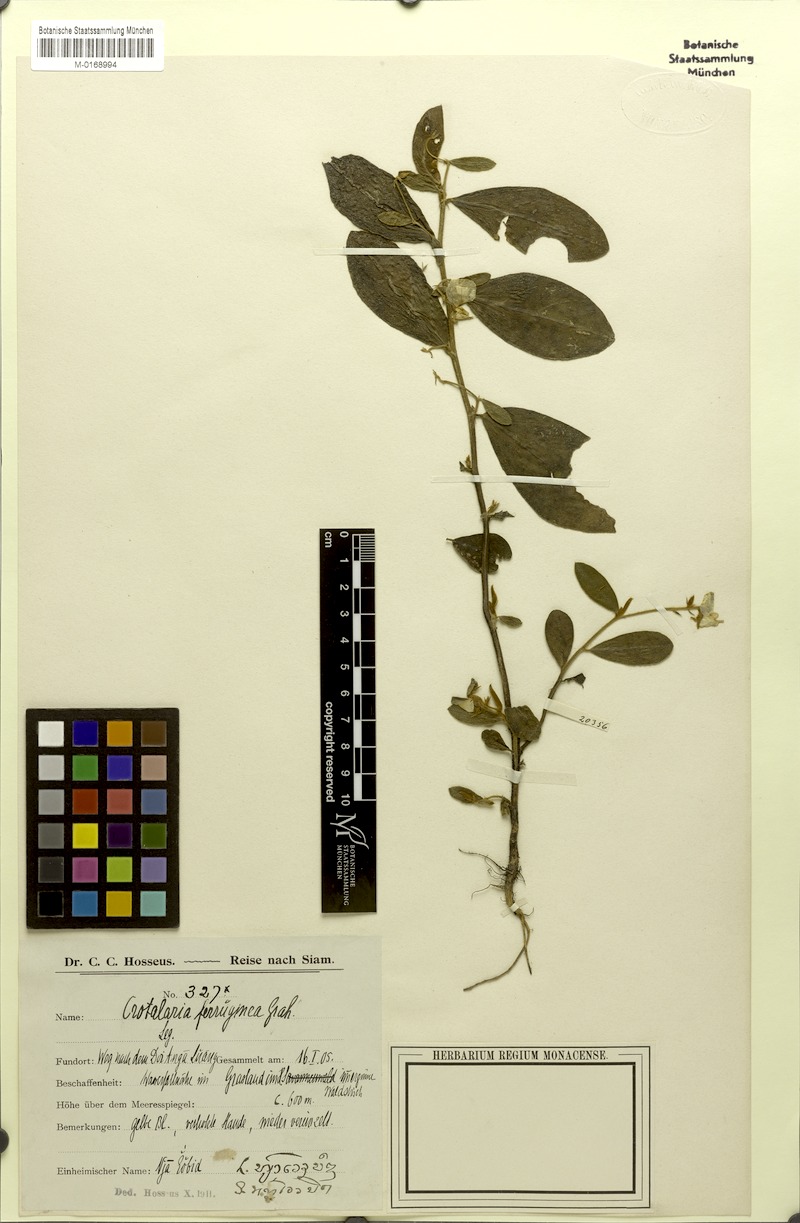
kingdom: Plantae
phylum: Tracheophyta
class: Magnoliopsida
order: Fabales
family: Fabaceae
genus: Crotalaria
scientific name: Crotalaria lejoloba
